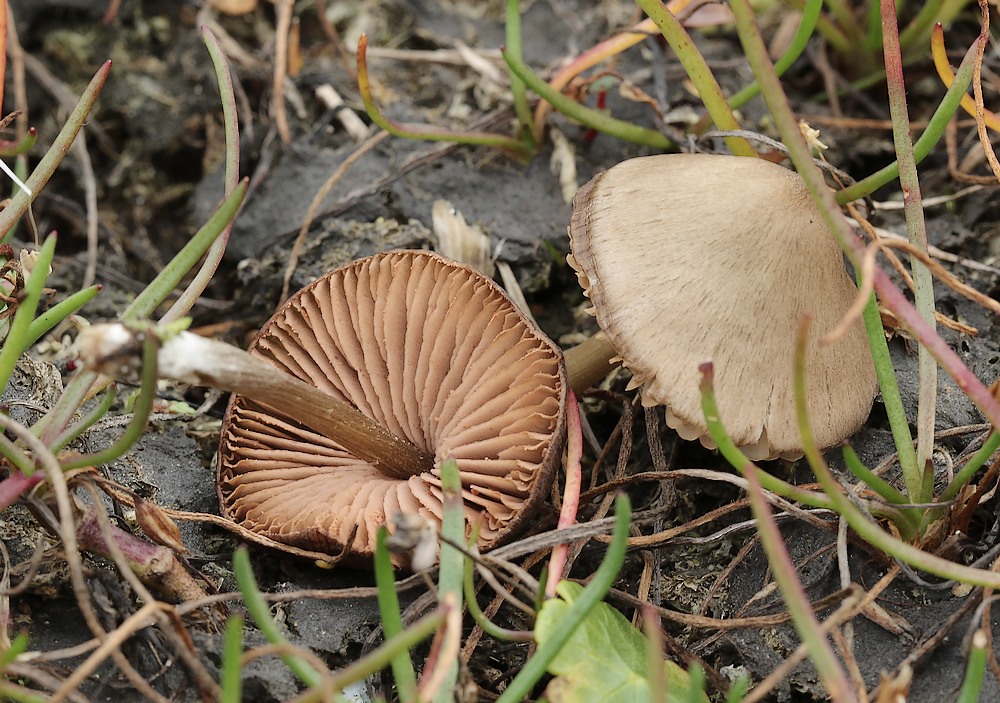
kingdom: Fungi
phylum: Basidiomycota
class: Agaricomycetes
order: Agaricales
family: Entolomataceae
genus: Entoloma
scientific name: Entoloma conferendum
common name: stjernesporet rødblad
